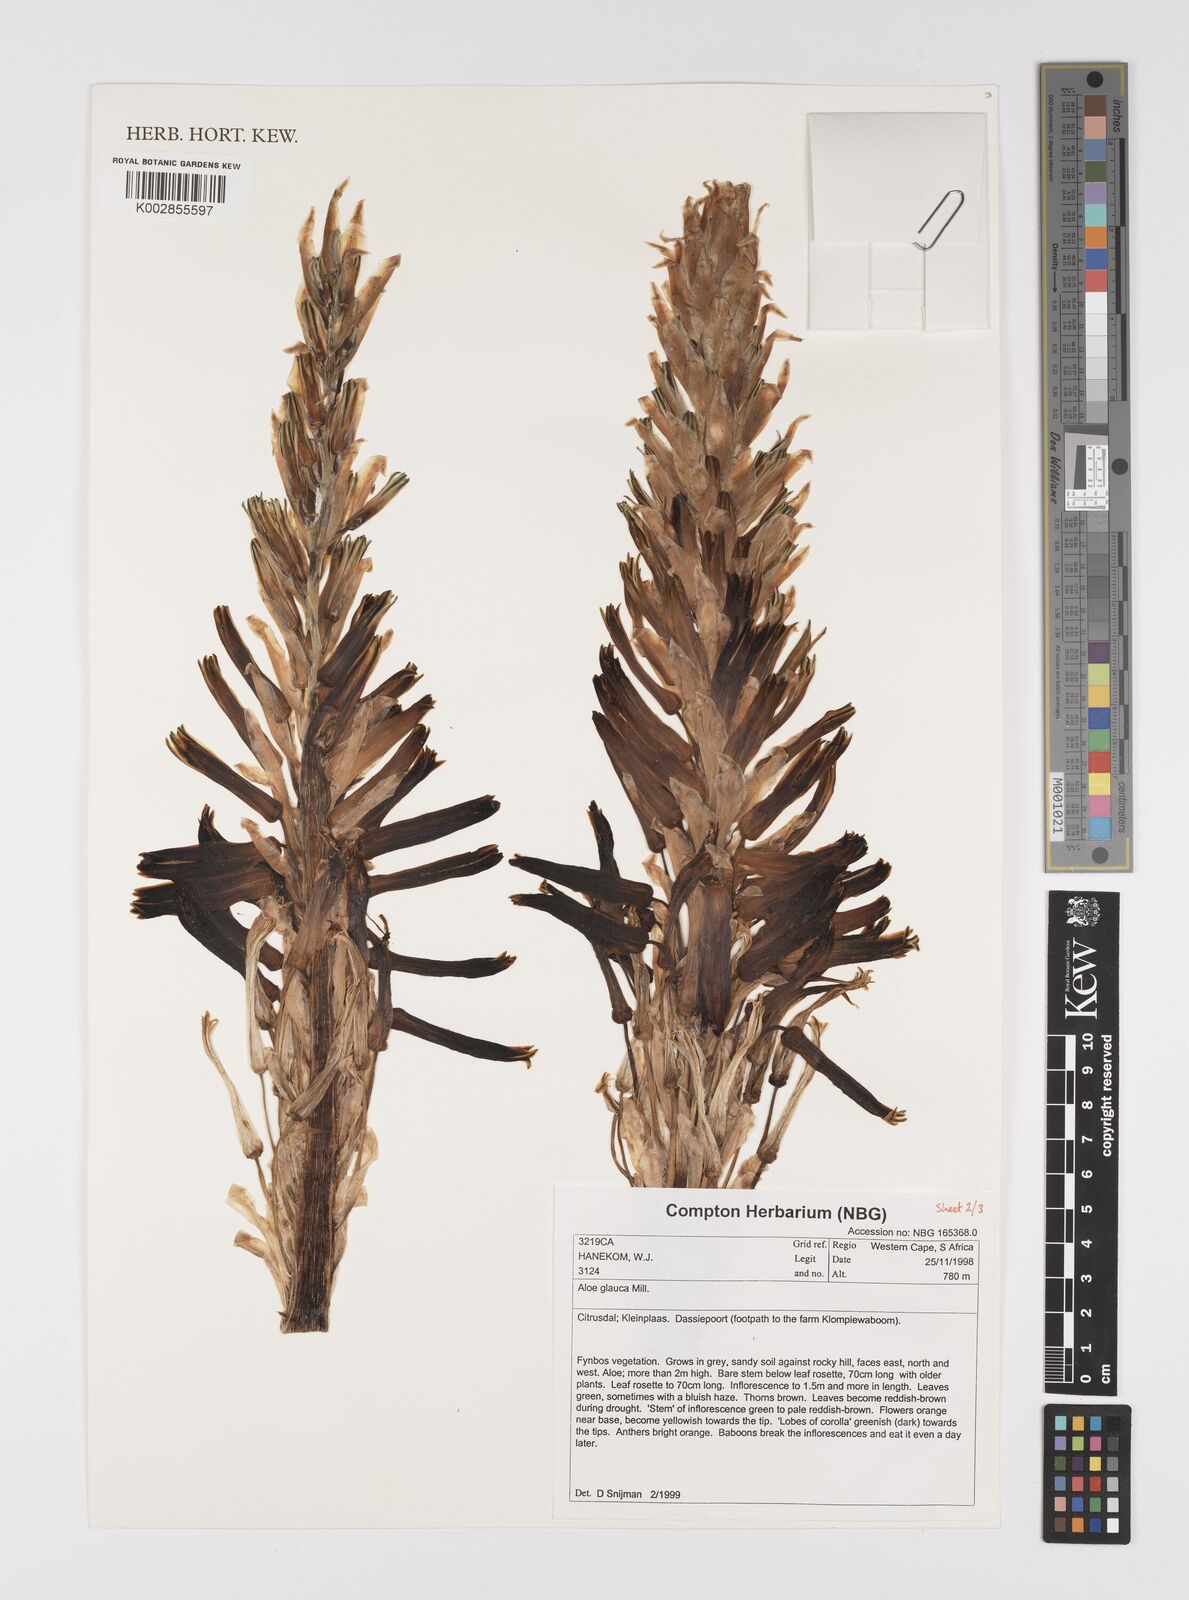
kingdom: Plantae
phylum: Tracheophyta
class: Liliopsida
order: Asparagales
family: Asphodelaceae
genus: Aloe
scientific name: Aloe glauca
